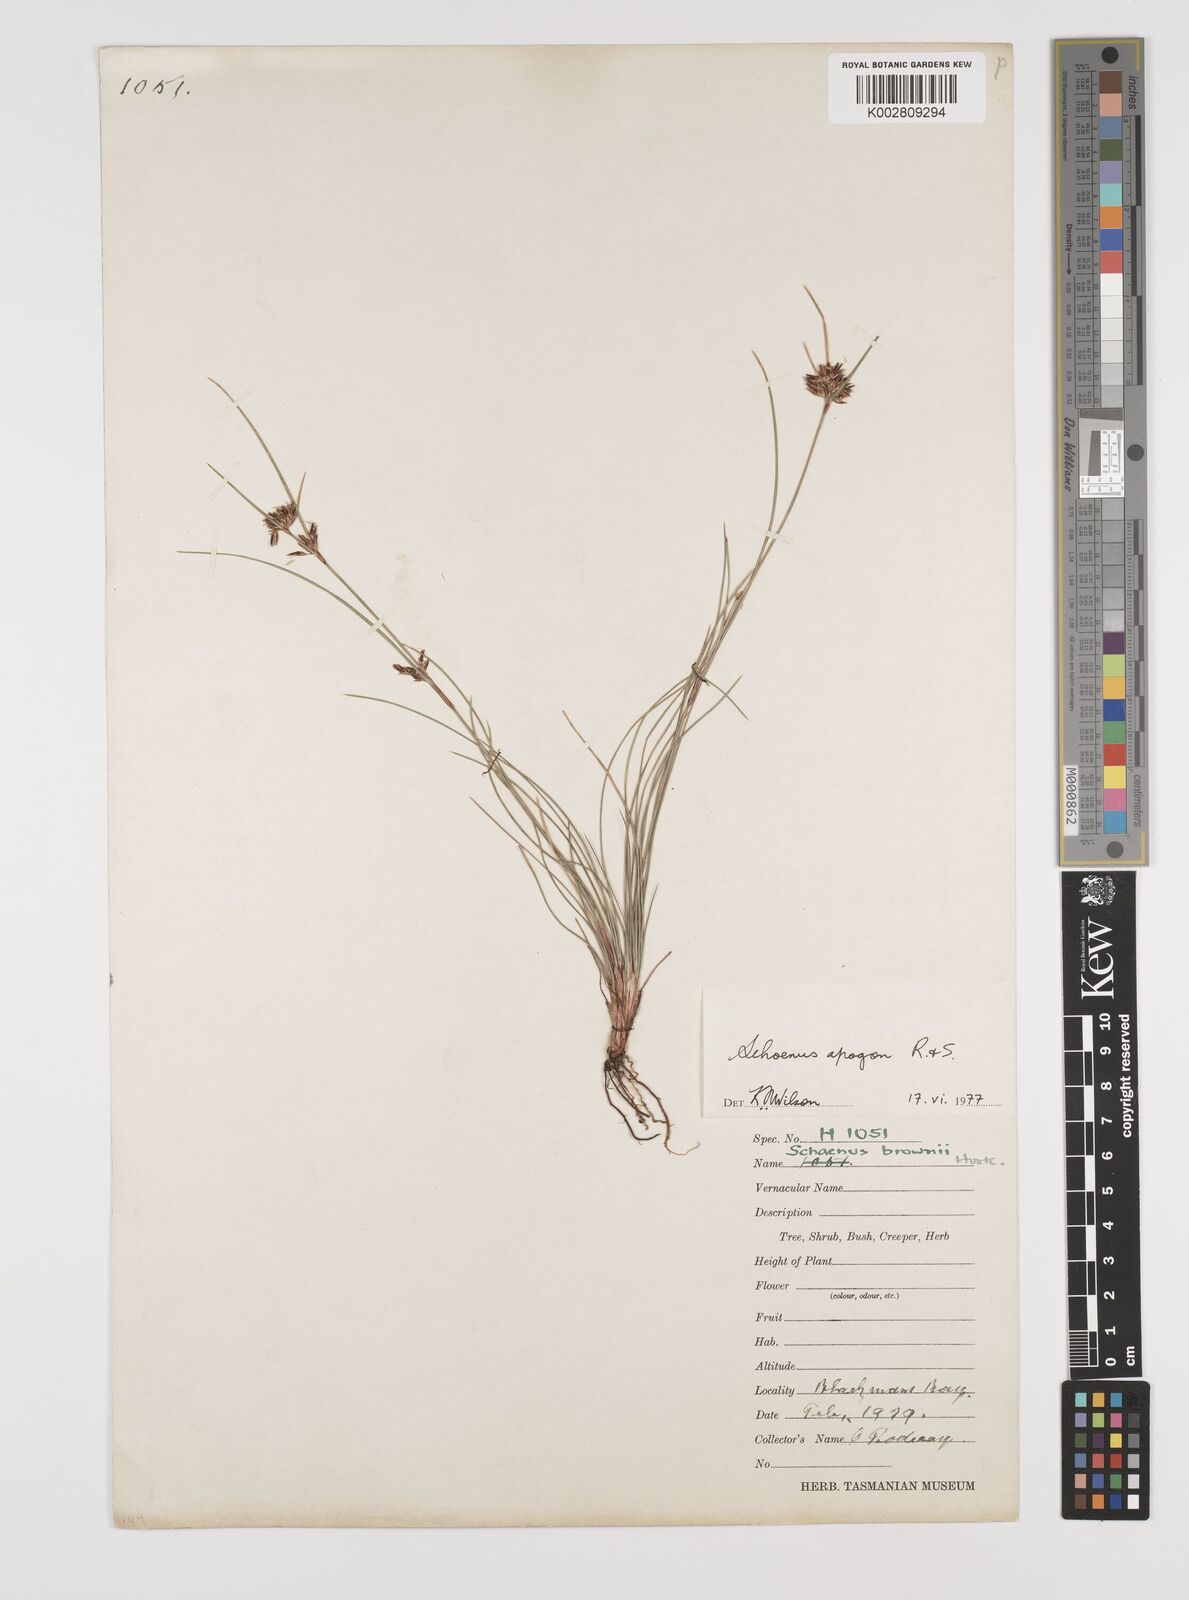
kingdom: Plantae
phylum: Tracheophyta
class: Liliopsida
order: Poales
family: Cyperaceae
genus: Schoenus
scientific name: Schoenus apogon
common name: Smooth bogrush
